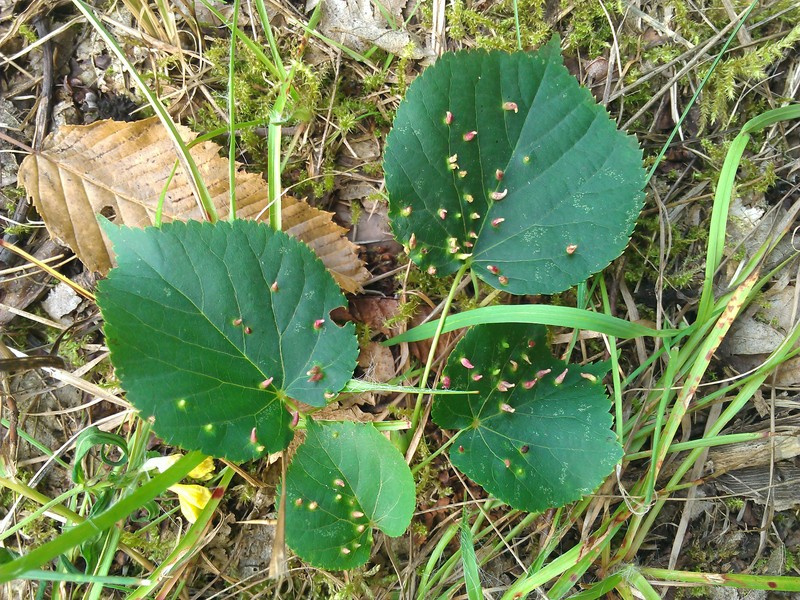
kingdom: Animalia
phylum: Arthropoda
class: Arachnida
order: Trombidiformes
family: Eriophyidae
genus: Eriophyes
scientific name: Eriophyes tiliae
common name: Red nail gall mite
